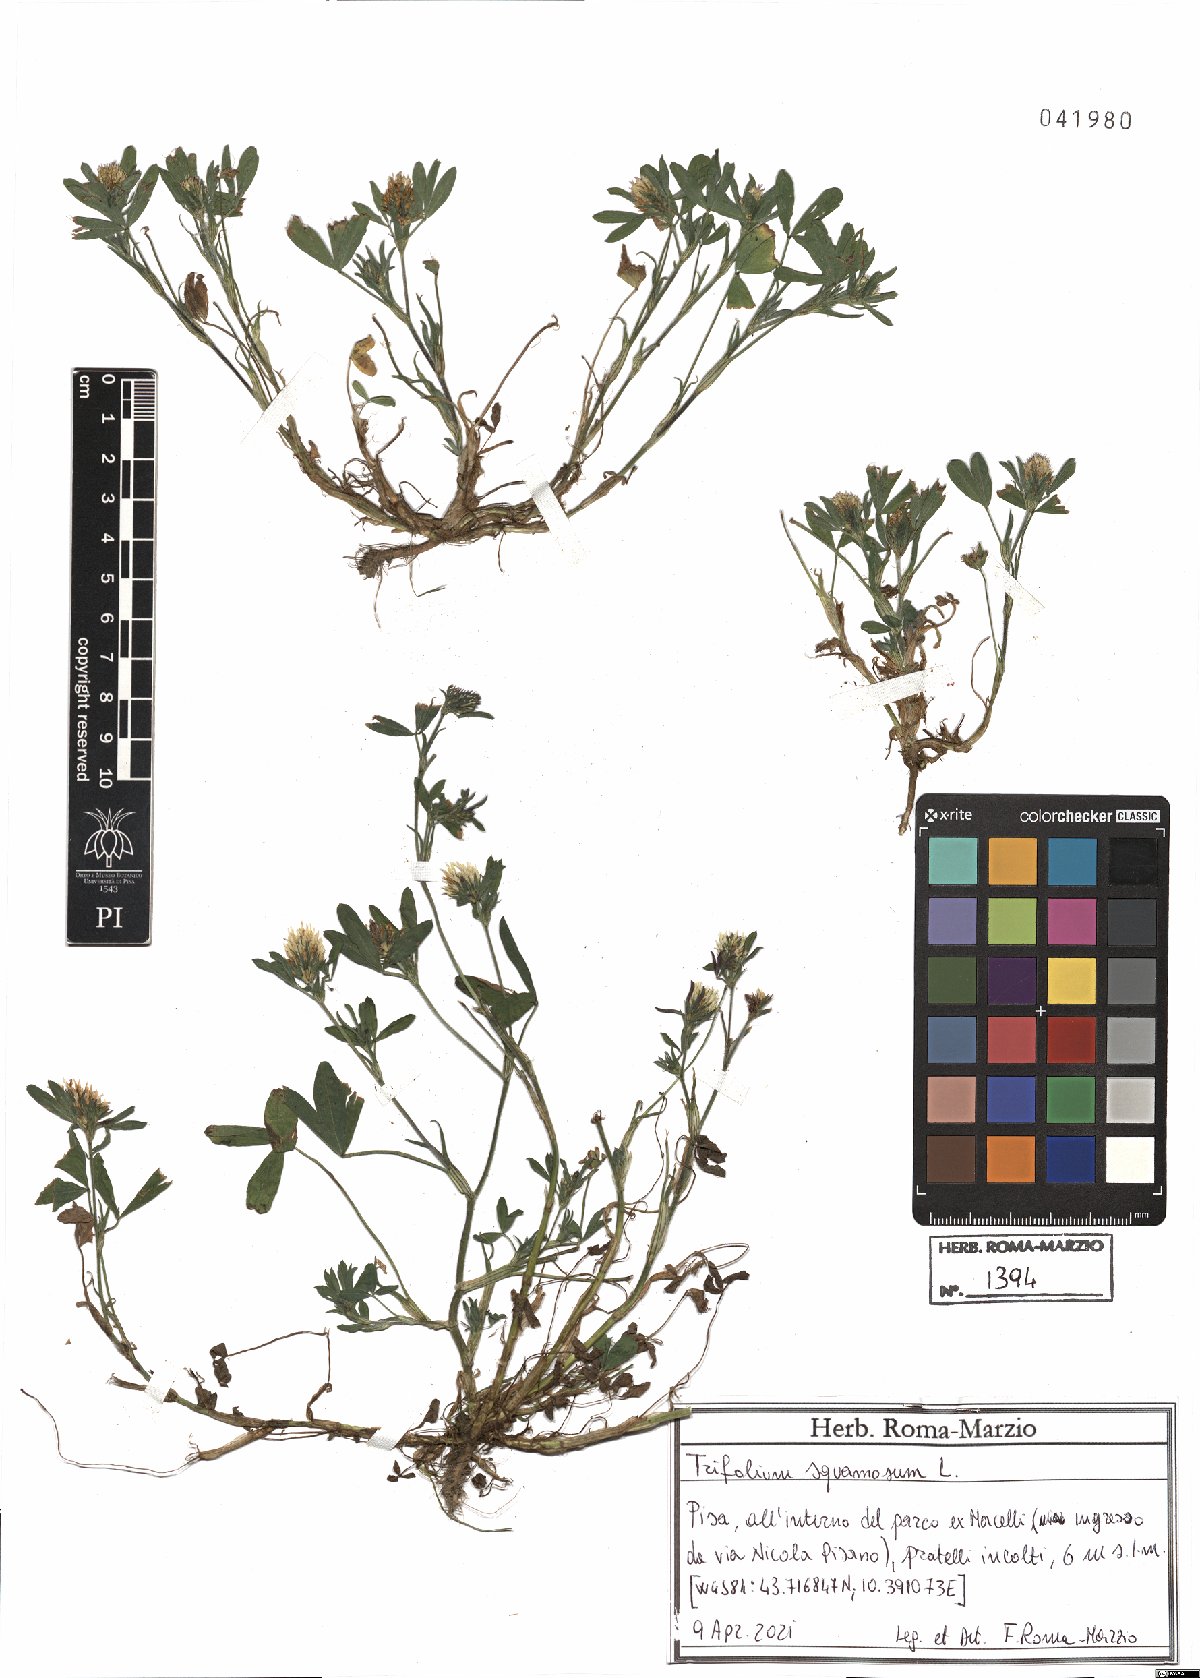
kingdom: Plantae
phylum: Tracheophyta
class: Magnoliopsida
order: Fabales
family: Fabaceae
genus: Trifolium
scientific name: Trifolium squamosum
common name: Sea clover
